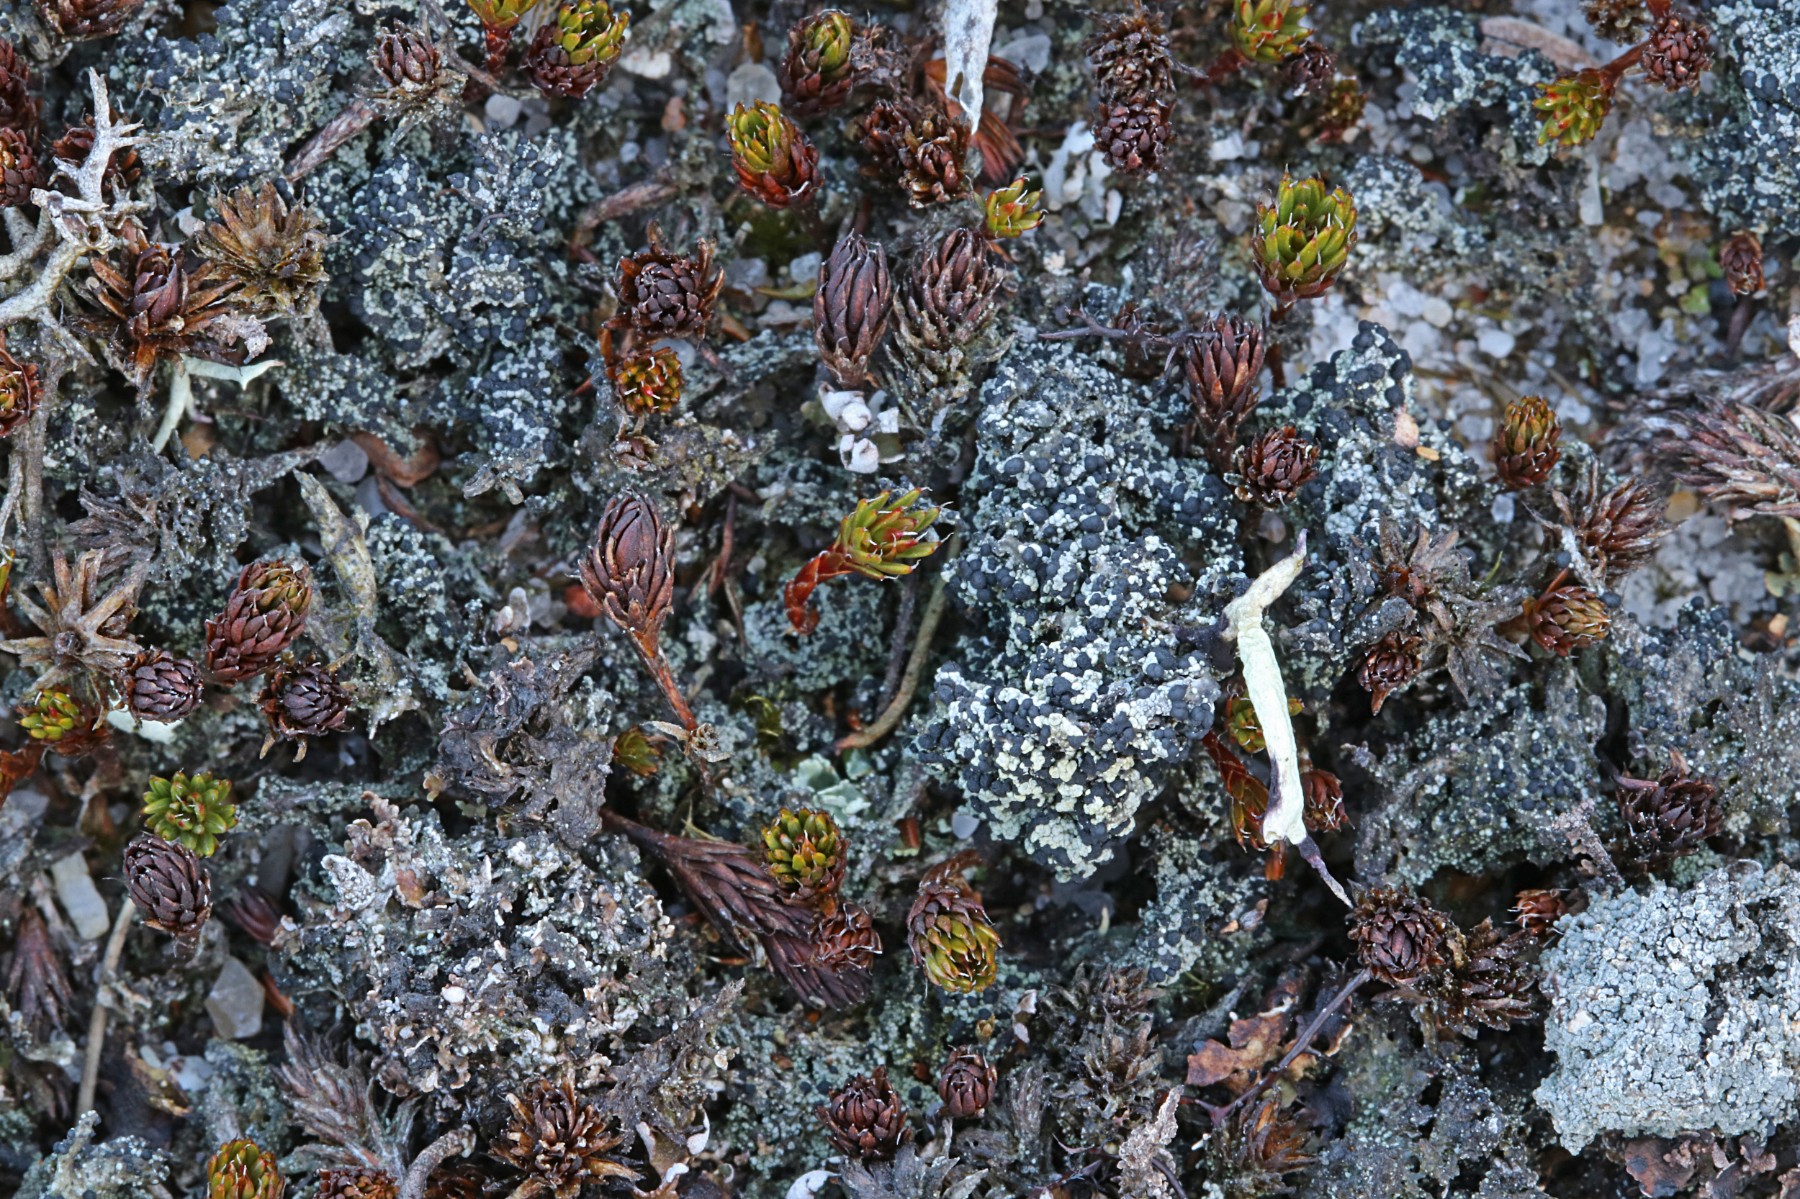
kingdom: Fungi
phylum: Ascomycota
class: Lecanoromycetes
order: Lecanorales
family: Byssolomataceae
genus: Micarea
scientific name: Micarea lignaria
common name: tørve-knaplav
